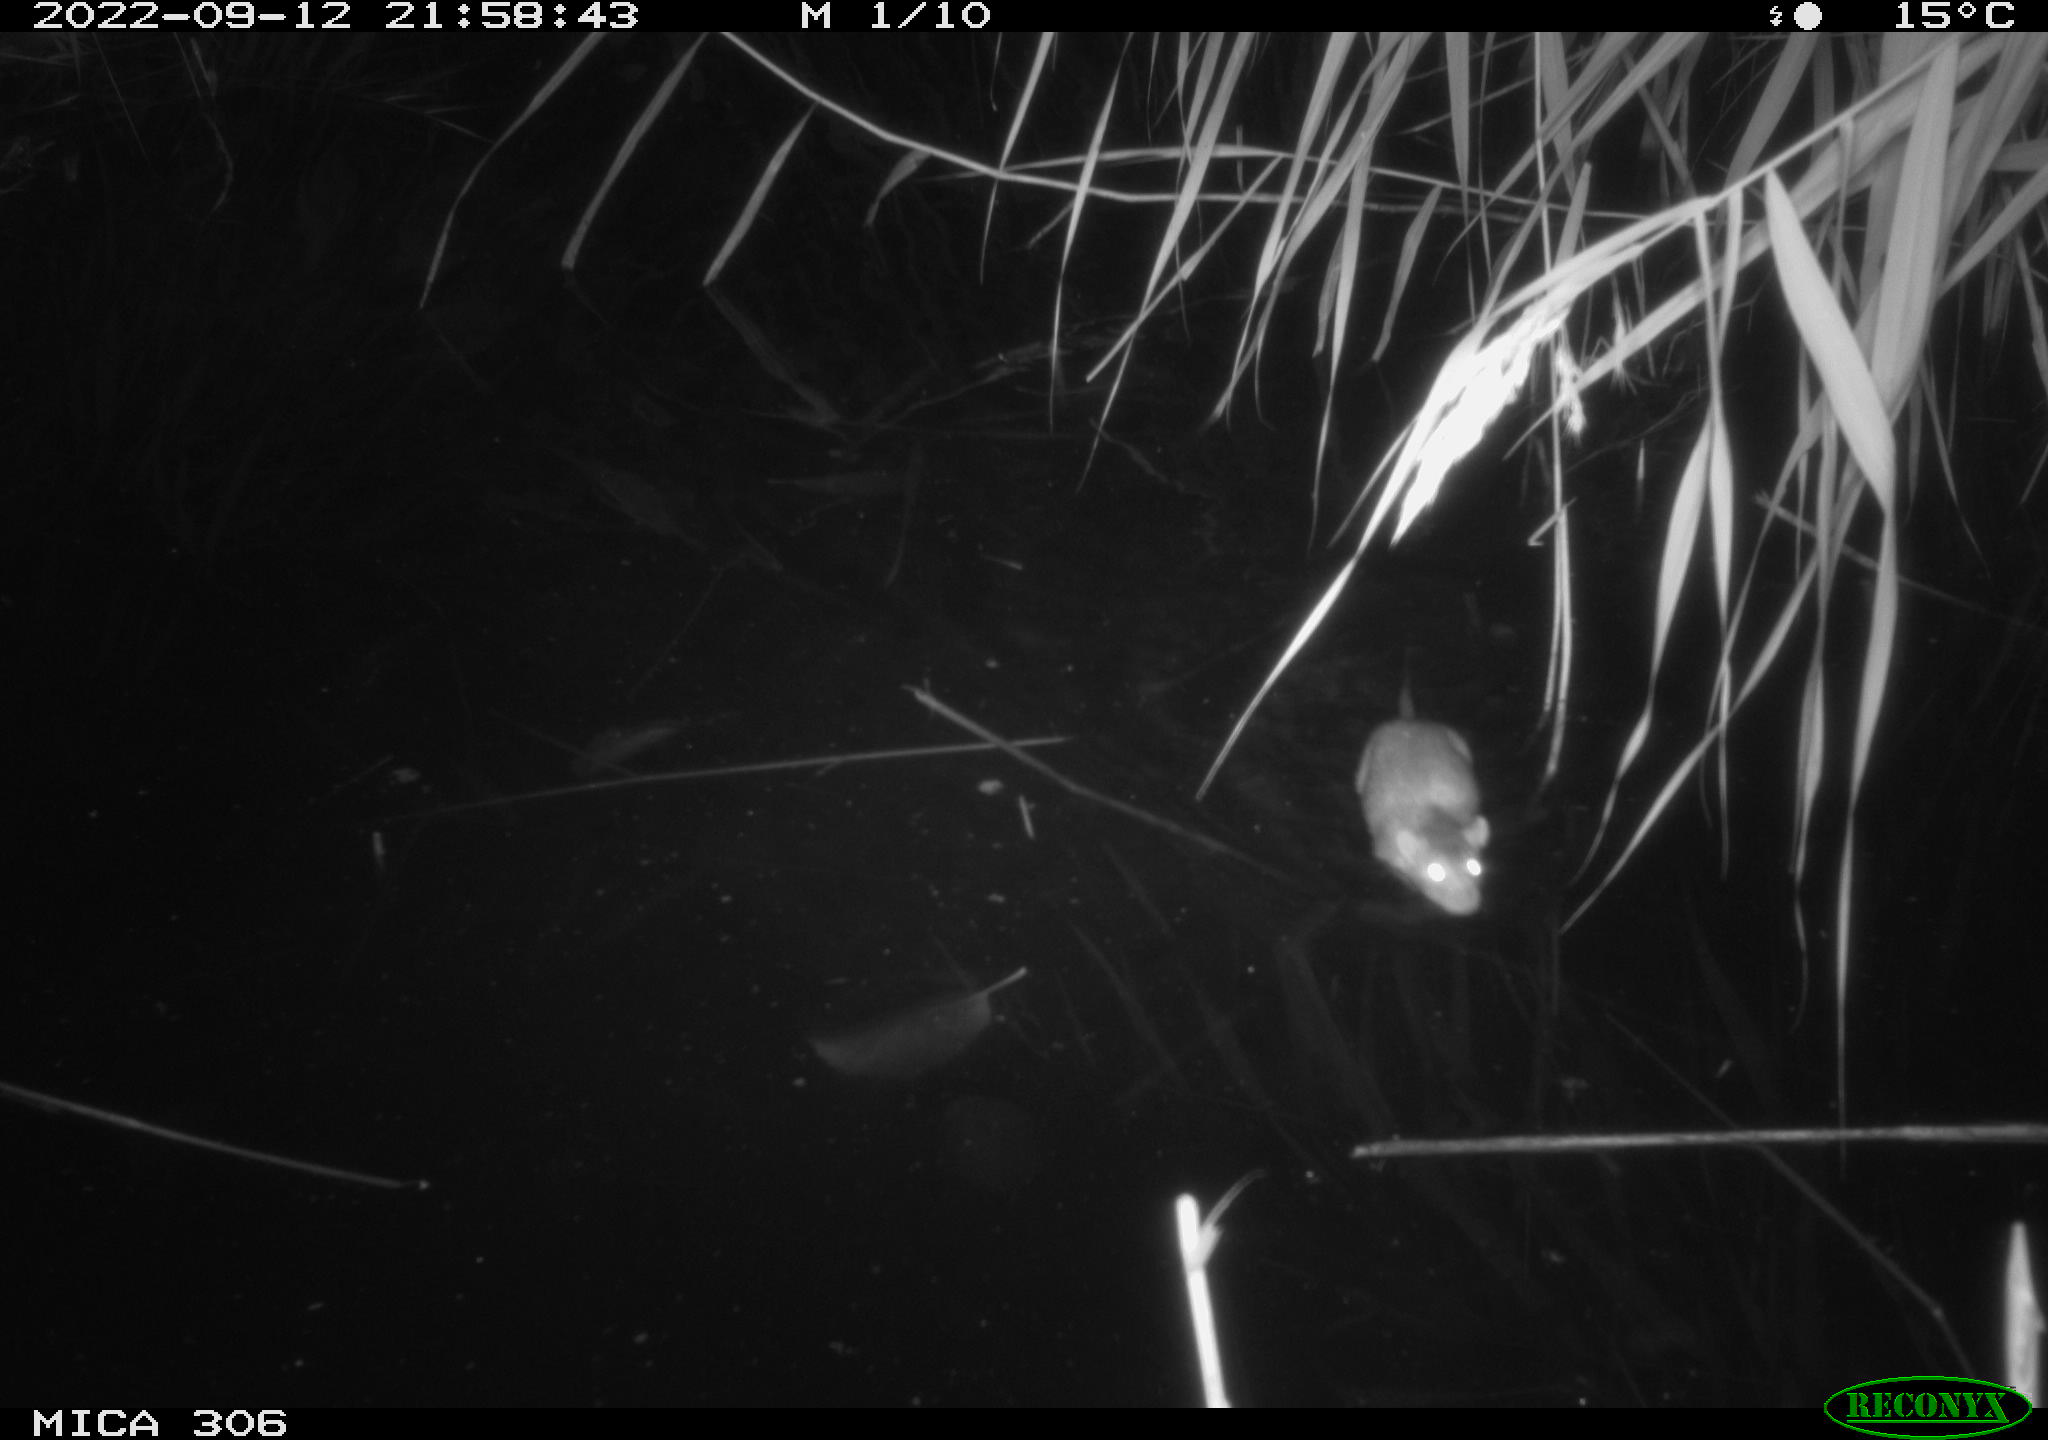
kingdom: Animalia
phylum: Chordata
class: Mammalia
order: Rodentia
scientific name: Rodentia
